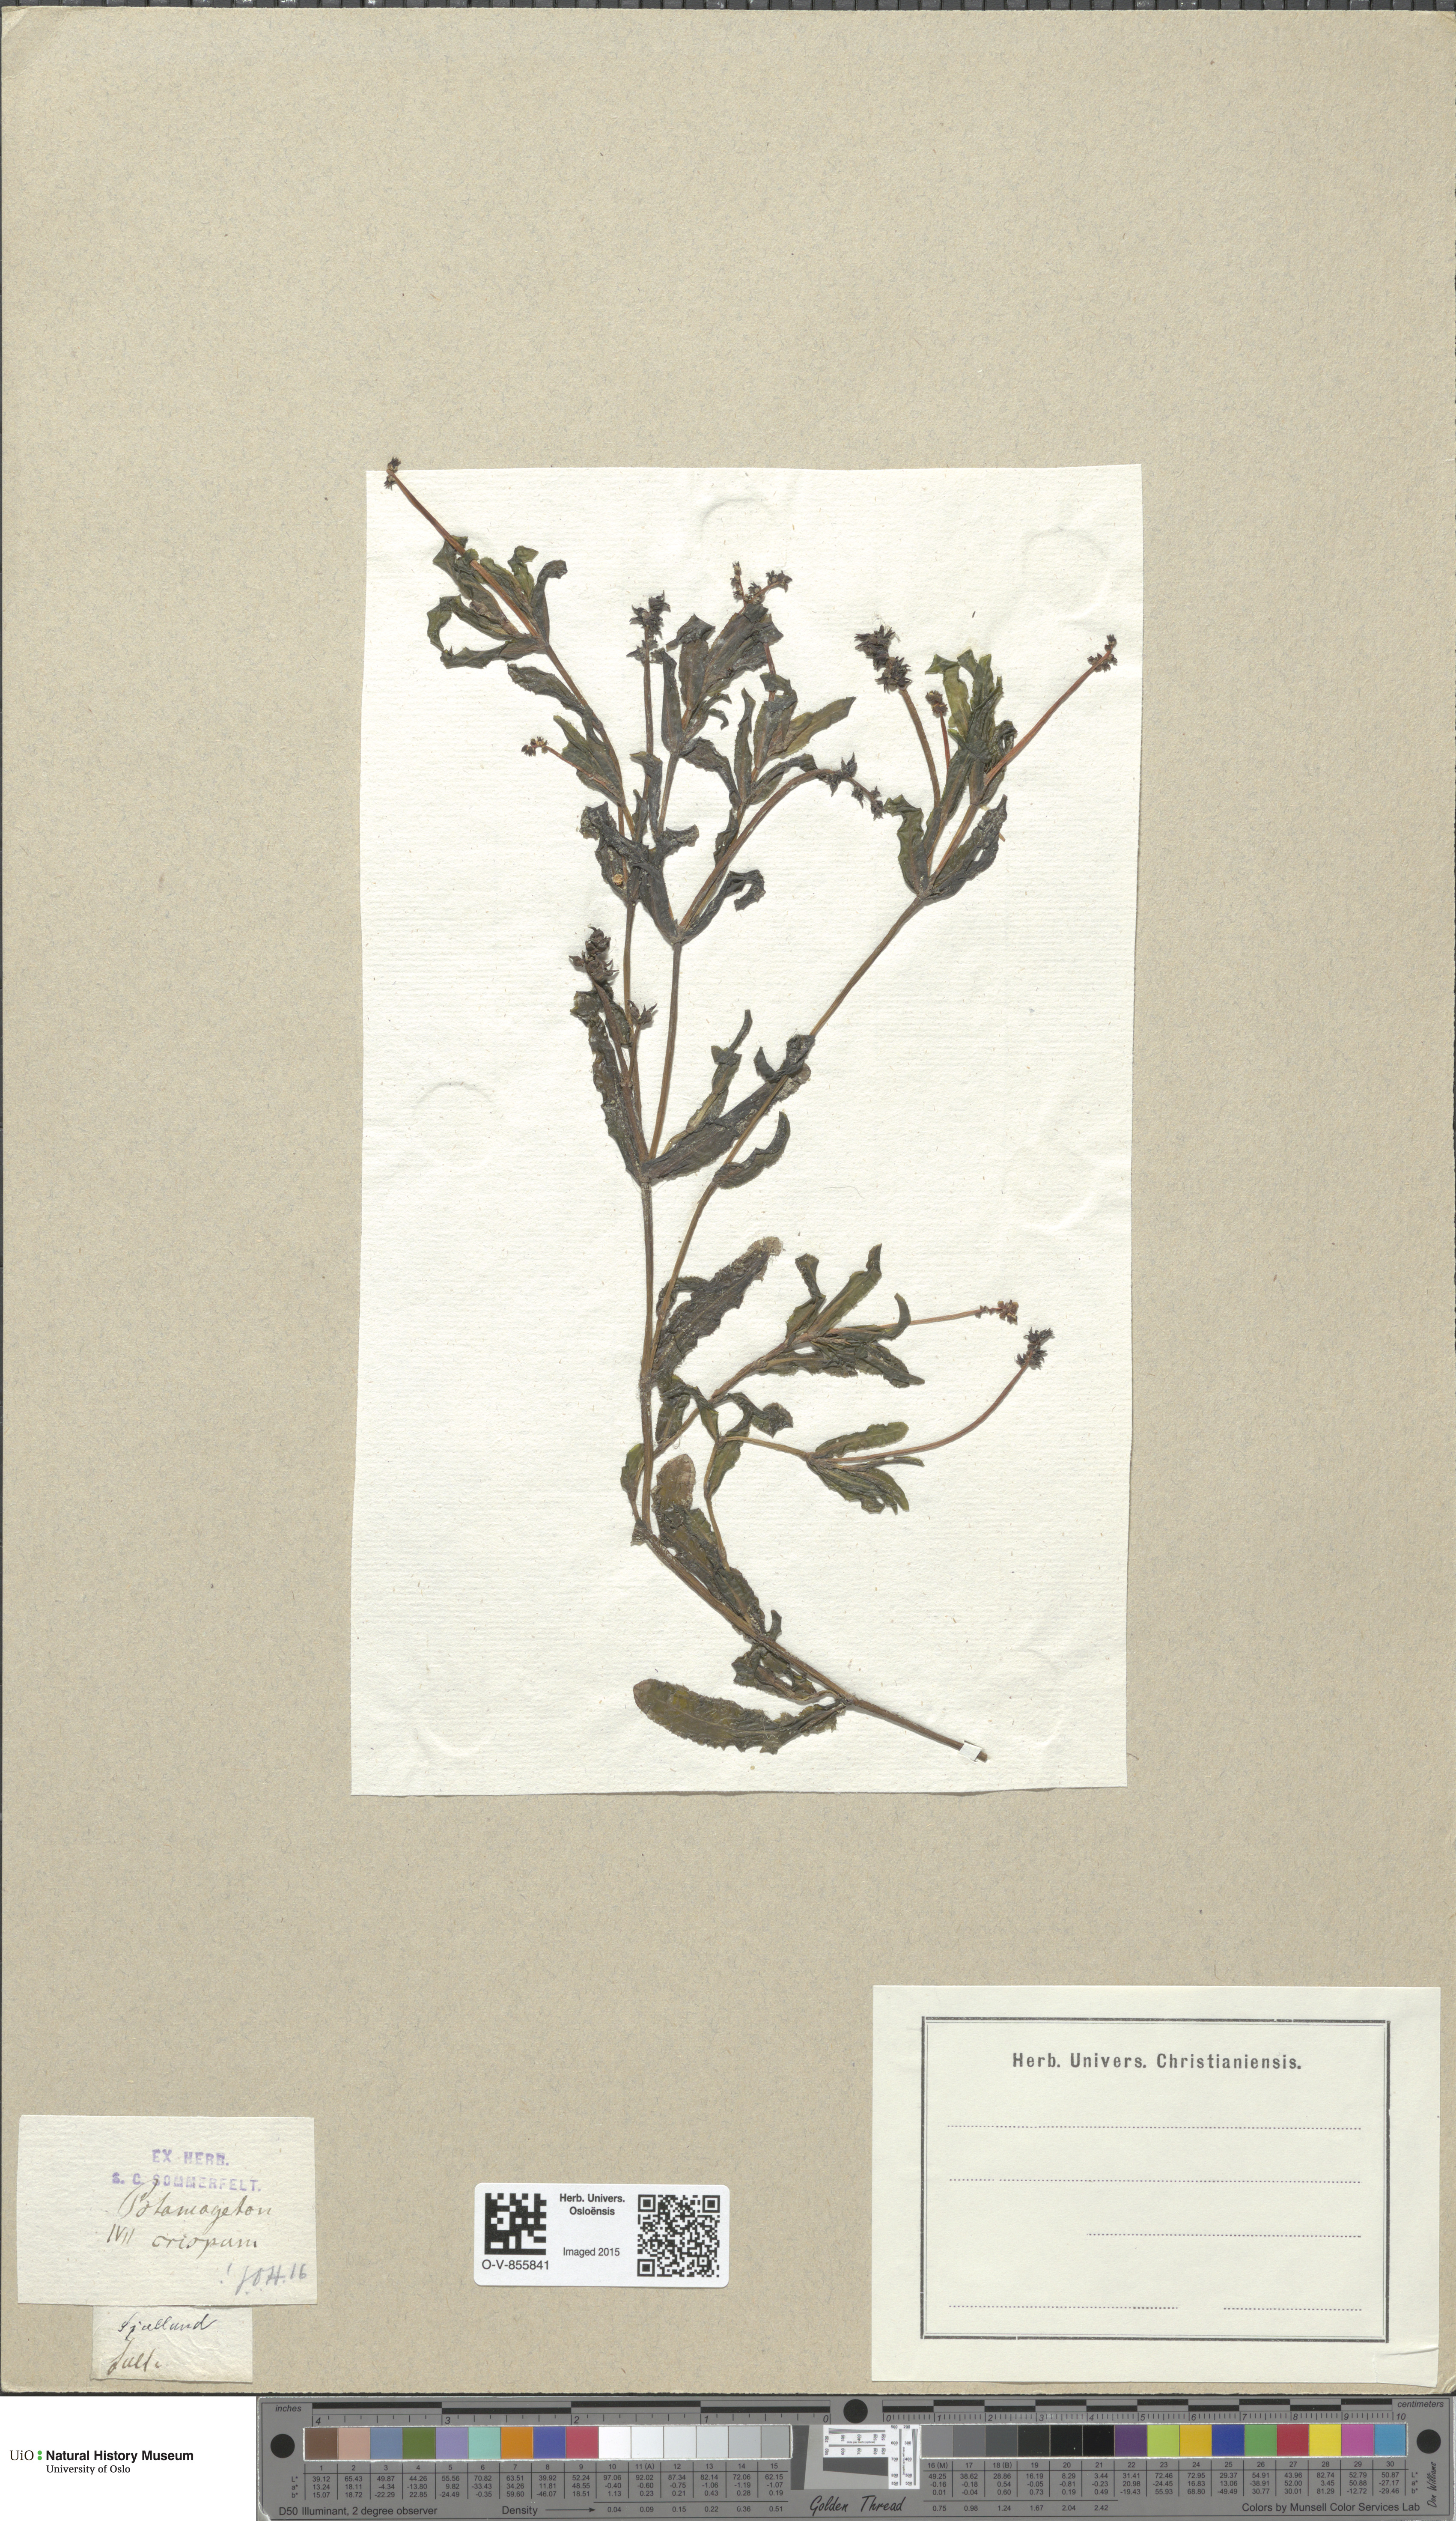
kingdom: Plantae
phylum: Tracheophyta
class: Liliopsida
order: Alismatales
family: Potamogetonaceae
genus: Potamogeton
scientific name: Potamogeton crispus
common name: Curled pondweed
